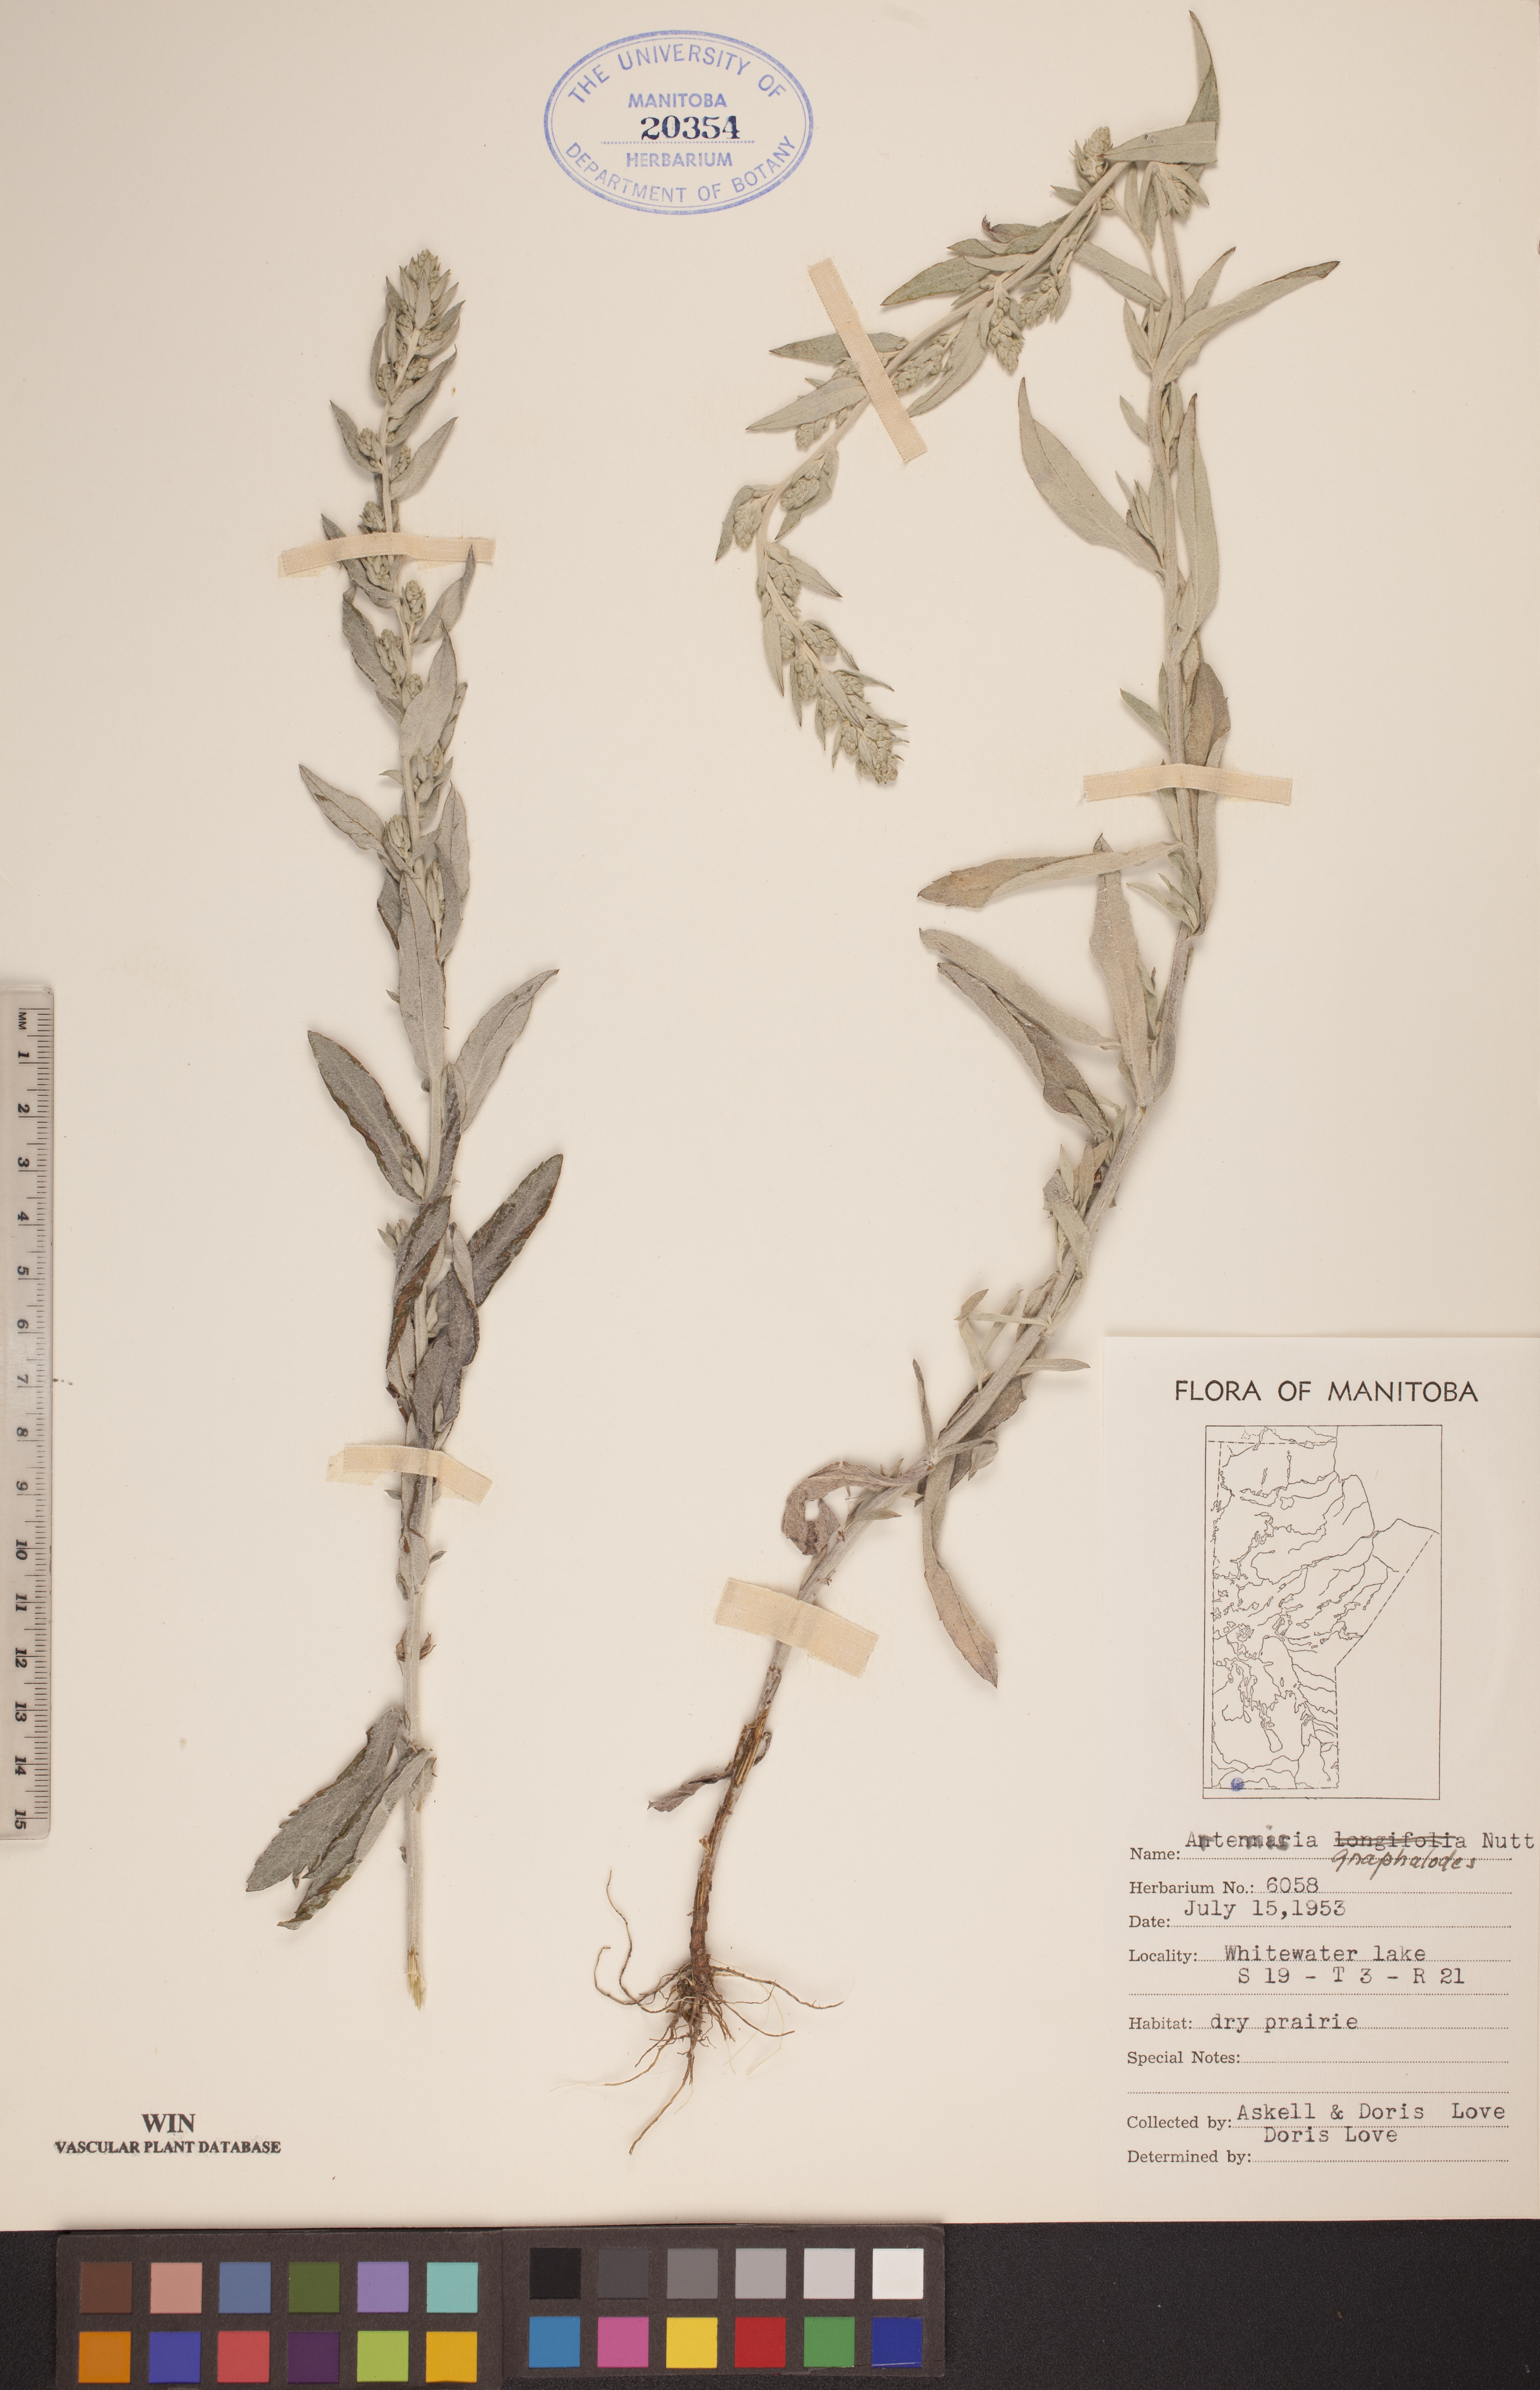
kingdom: Plantae
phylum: Tracheophyta
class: Magnoliopsida
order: Asterales
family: Asteraceae
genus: Artemisia
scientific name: Artemisia ludoviciana
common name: Western mugwort
